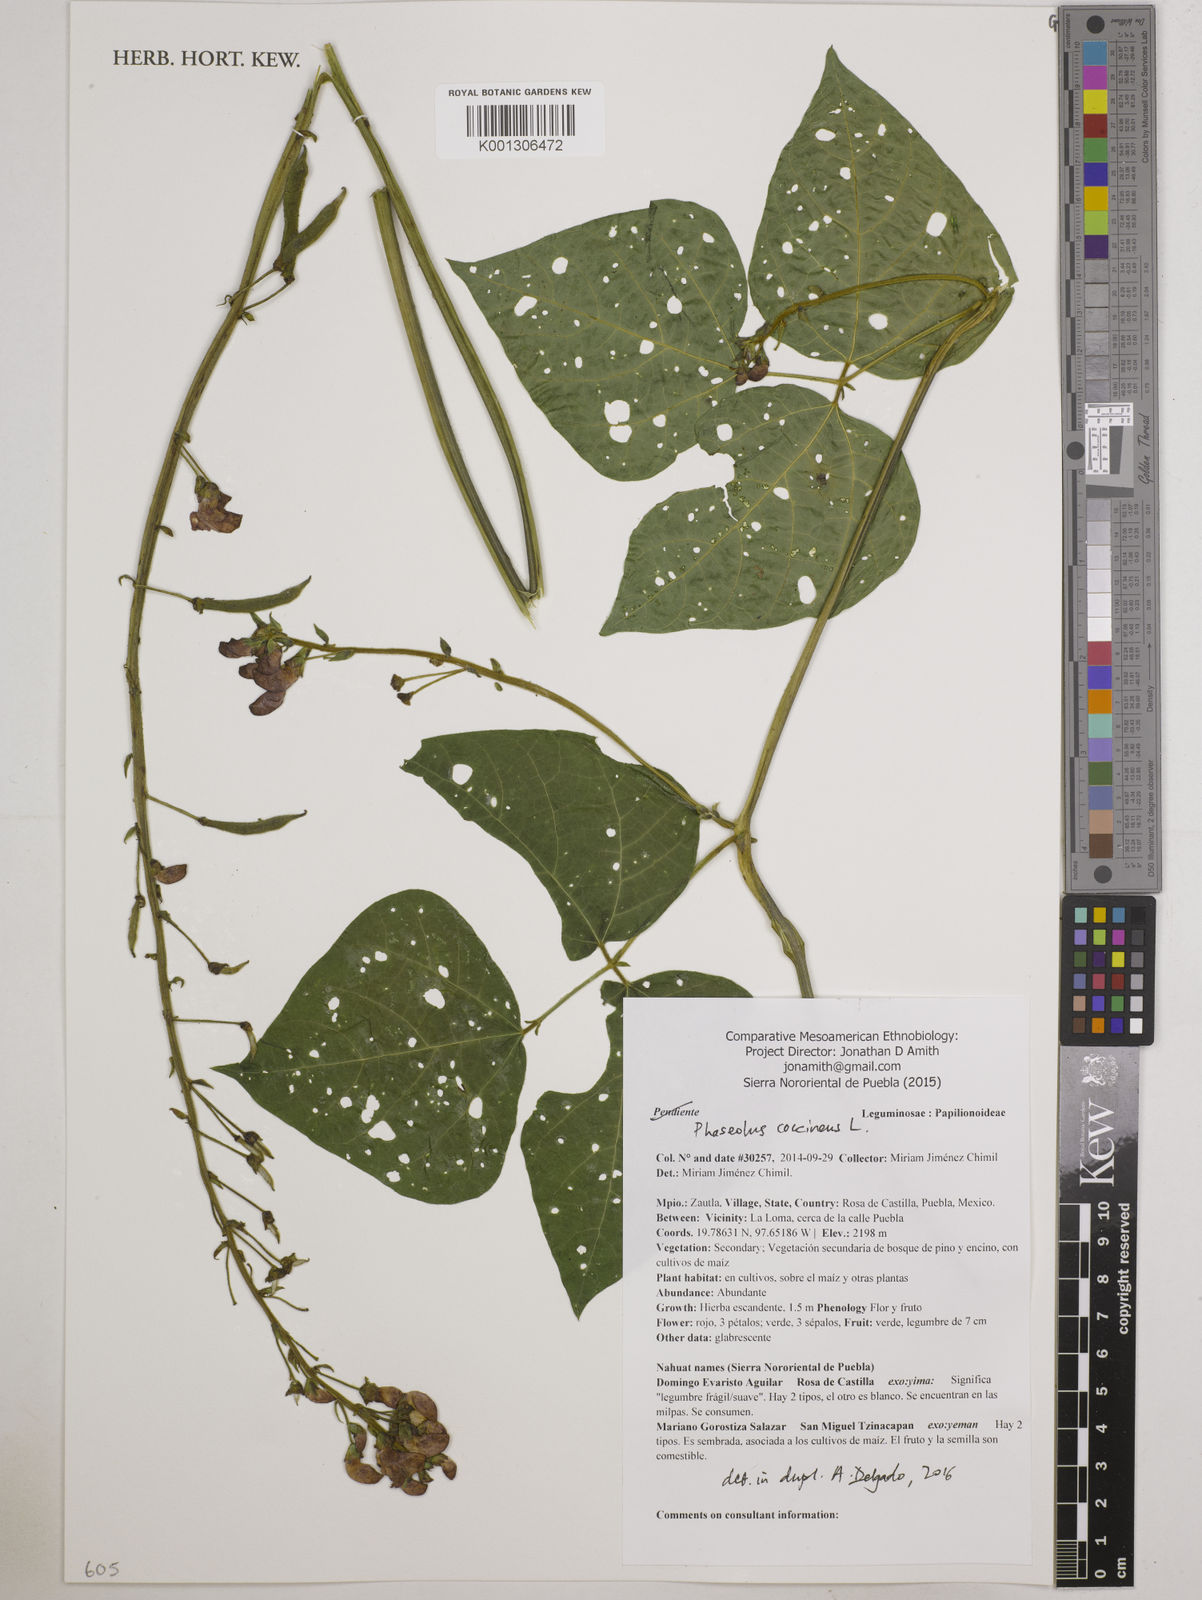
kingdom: Plantae
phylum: Tracheophyta
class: Magnoliopsida
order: Fabales
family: Fabaceae
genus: Phaseolus
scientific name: Phaseolus coccineus
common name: Runner bean
